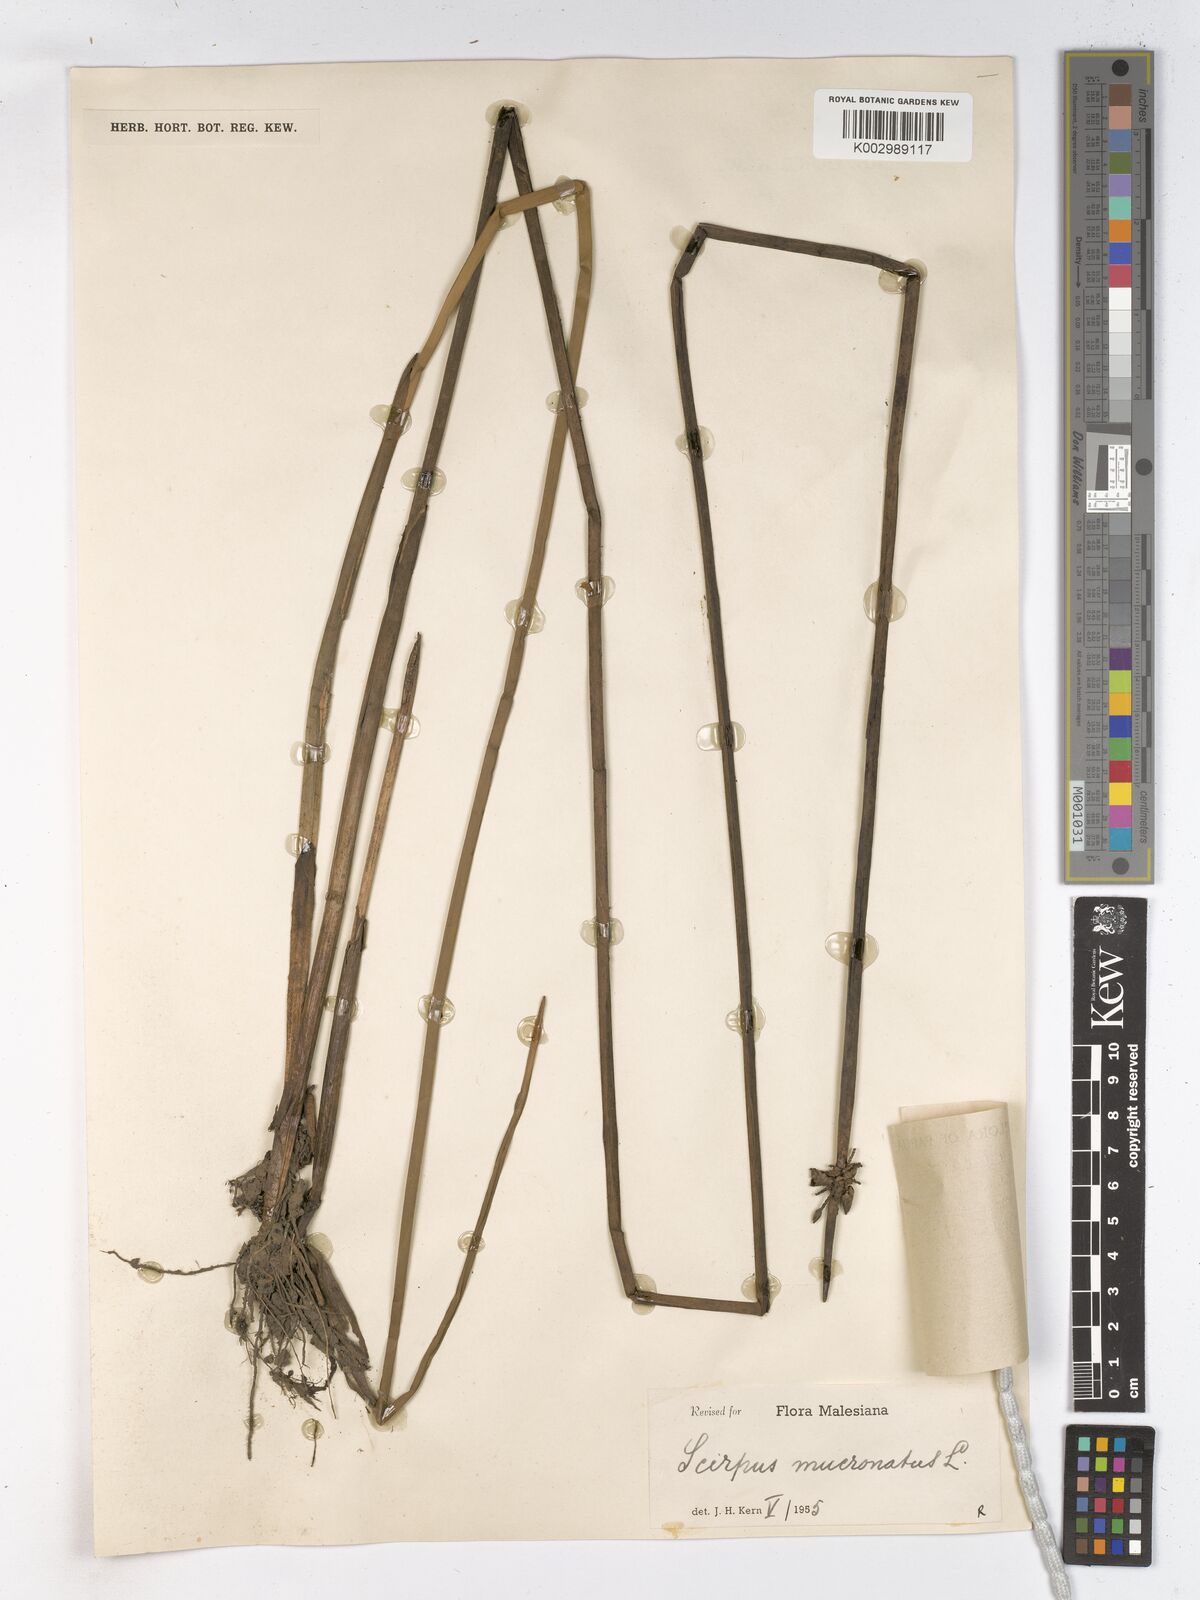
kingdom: Plantae
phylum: Tracheophyta
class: Liliopsida
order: Poales
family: Cyperaceae
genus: Schoenoplectiella
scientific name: Schoenoplectiella mucronata
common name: Bog bulrush
